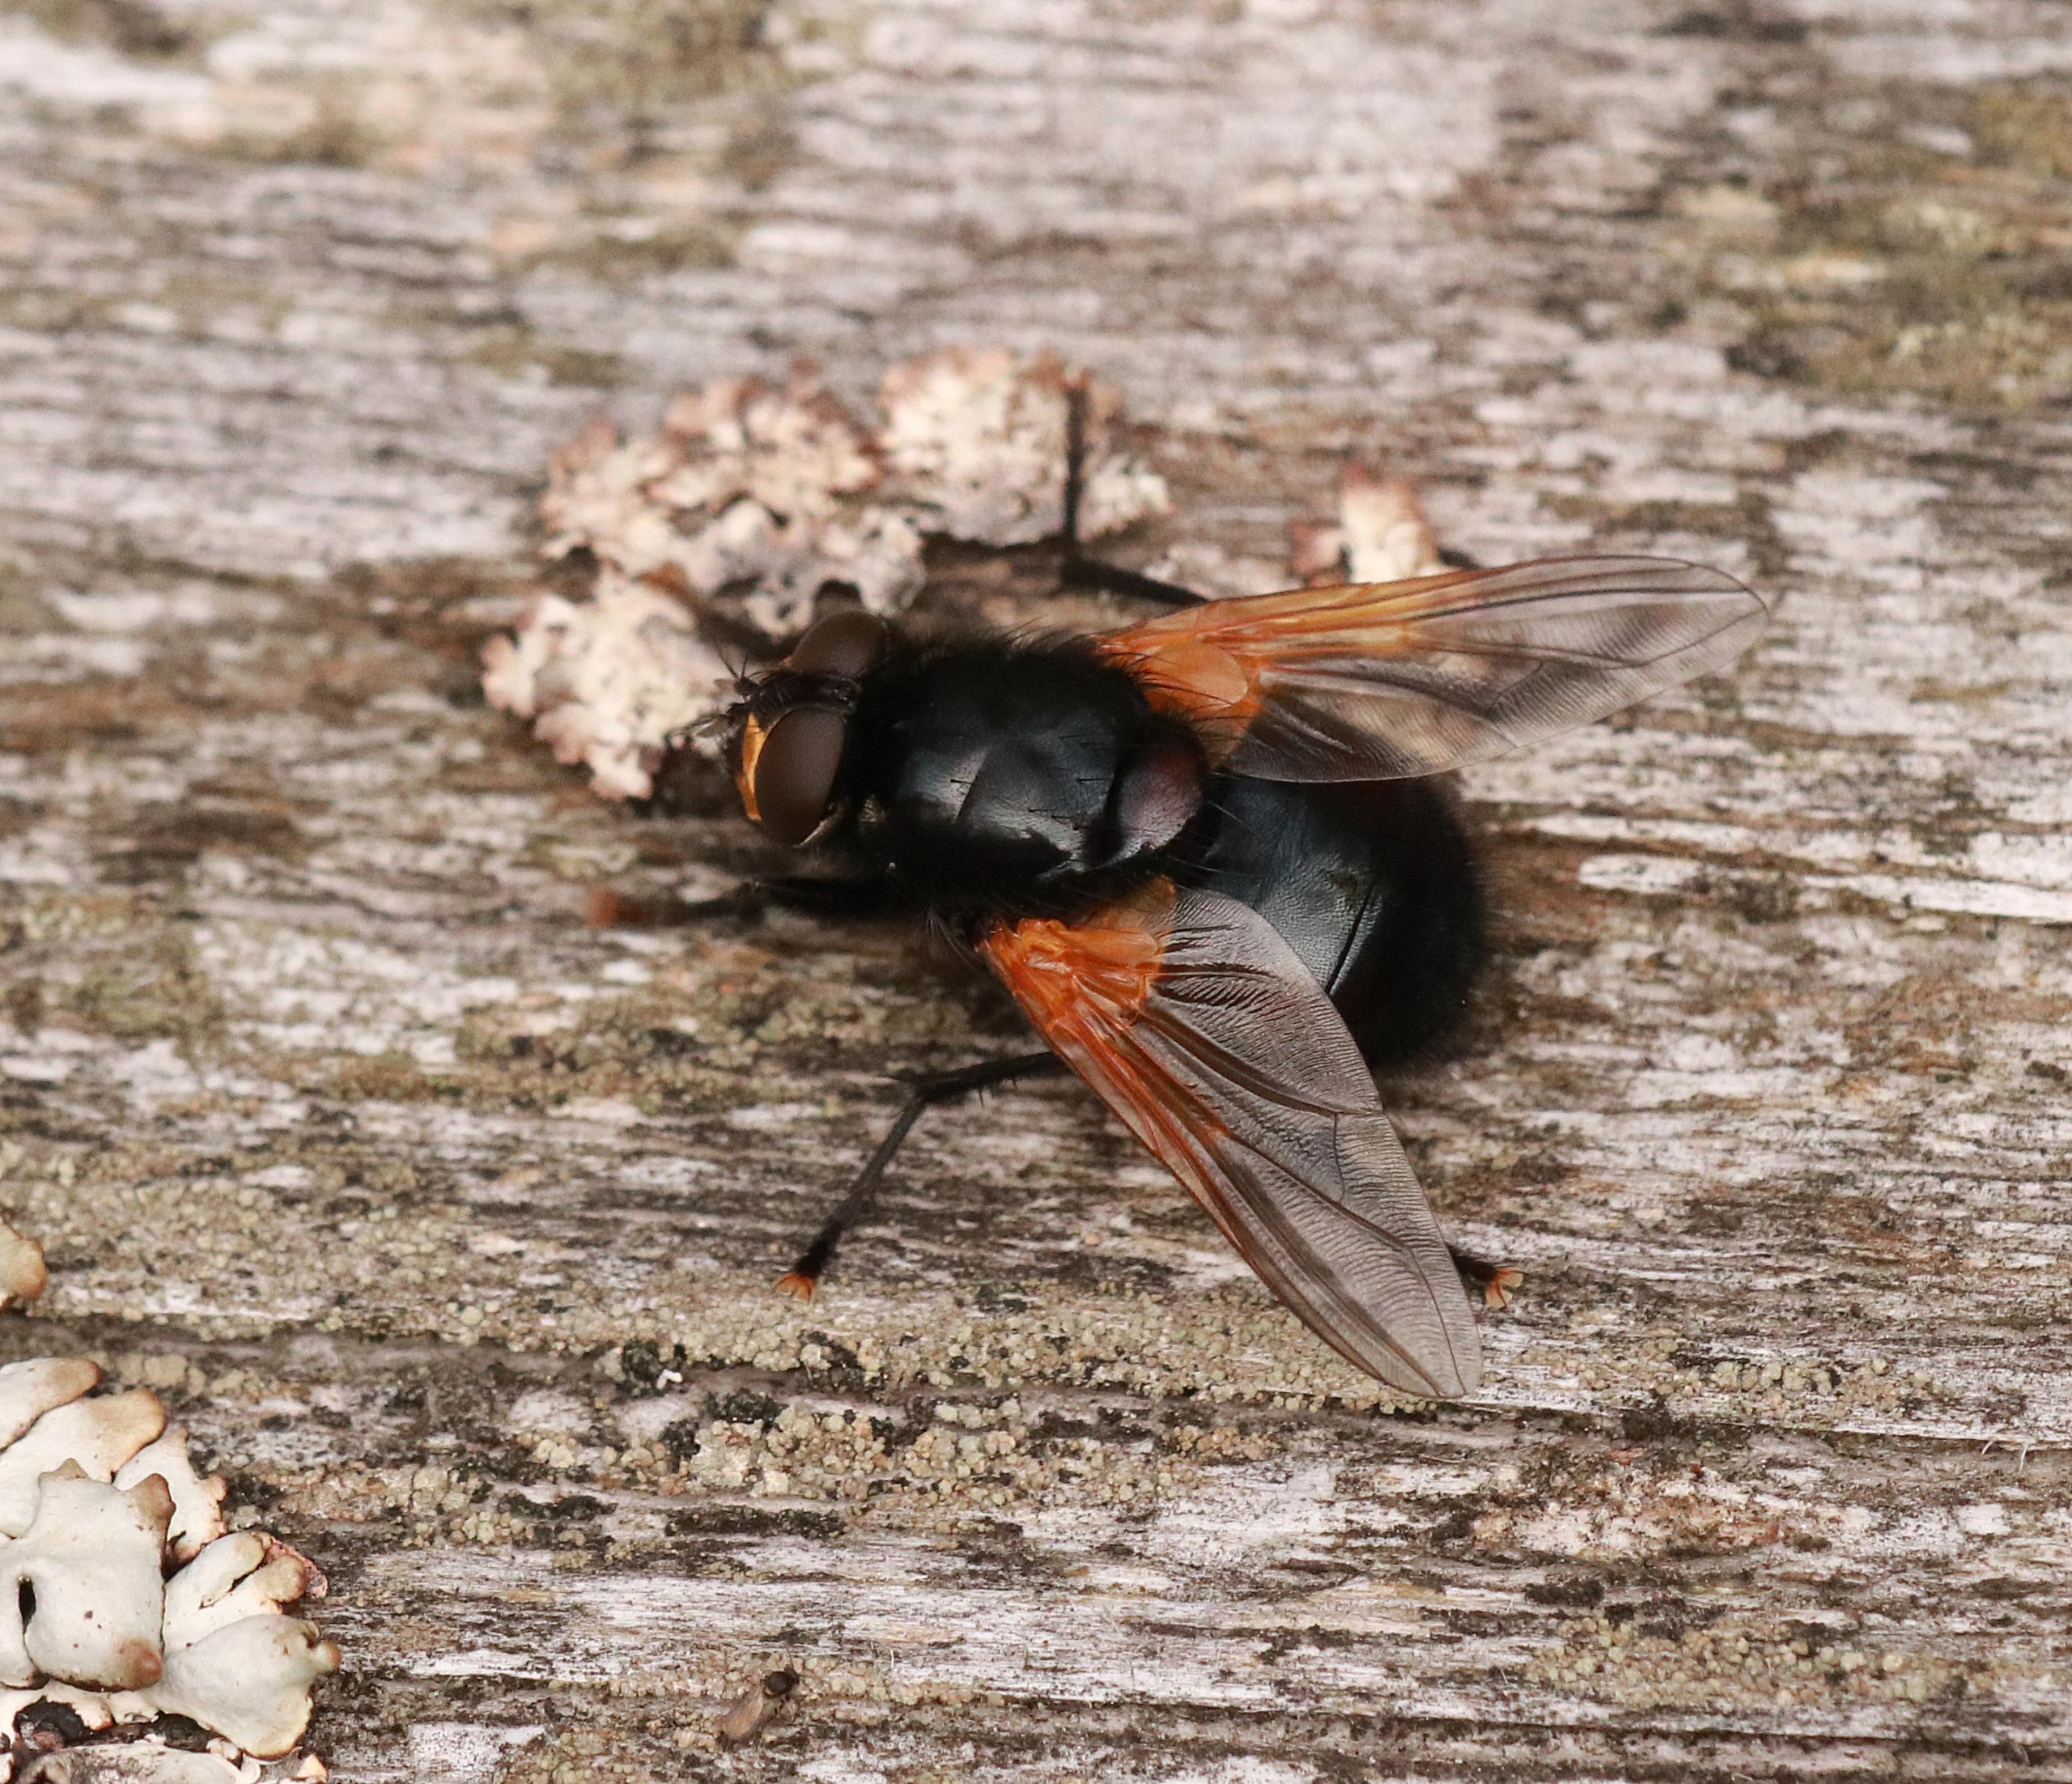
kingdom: Animalia
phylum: Arthropoda
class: Insecta
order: Diptera
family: Muscidae
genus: Mesembrina
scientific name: Mesembrina meridiana
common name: Gulvinget flue
